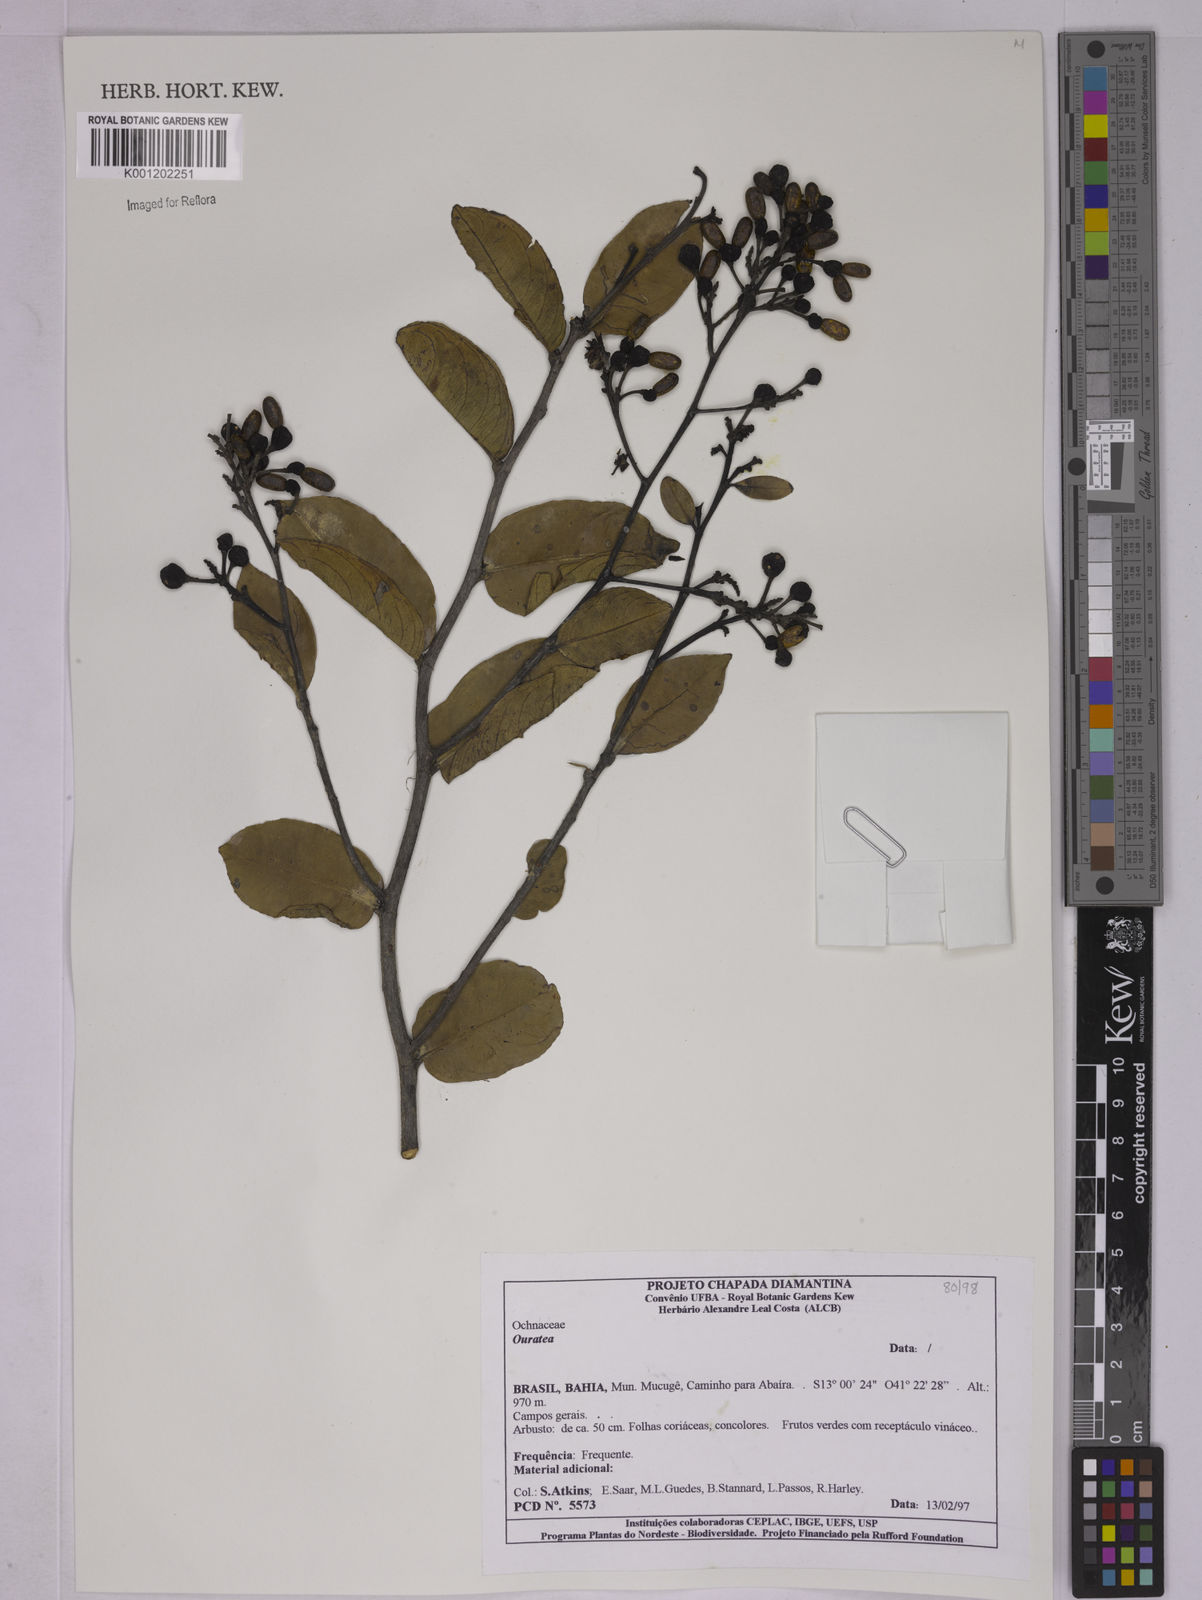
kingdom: Plantae
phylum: Tracheophyta
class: Magnoliopsida
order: Malpighiales
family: Ochnaceae
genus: Ouratea
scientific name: Ouratea
